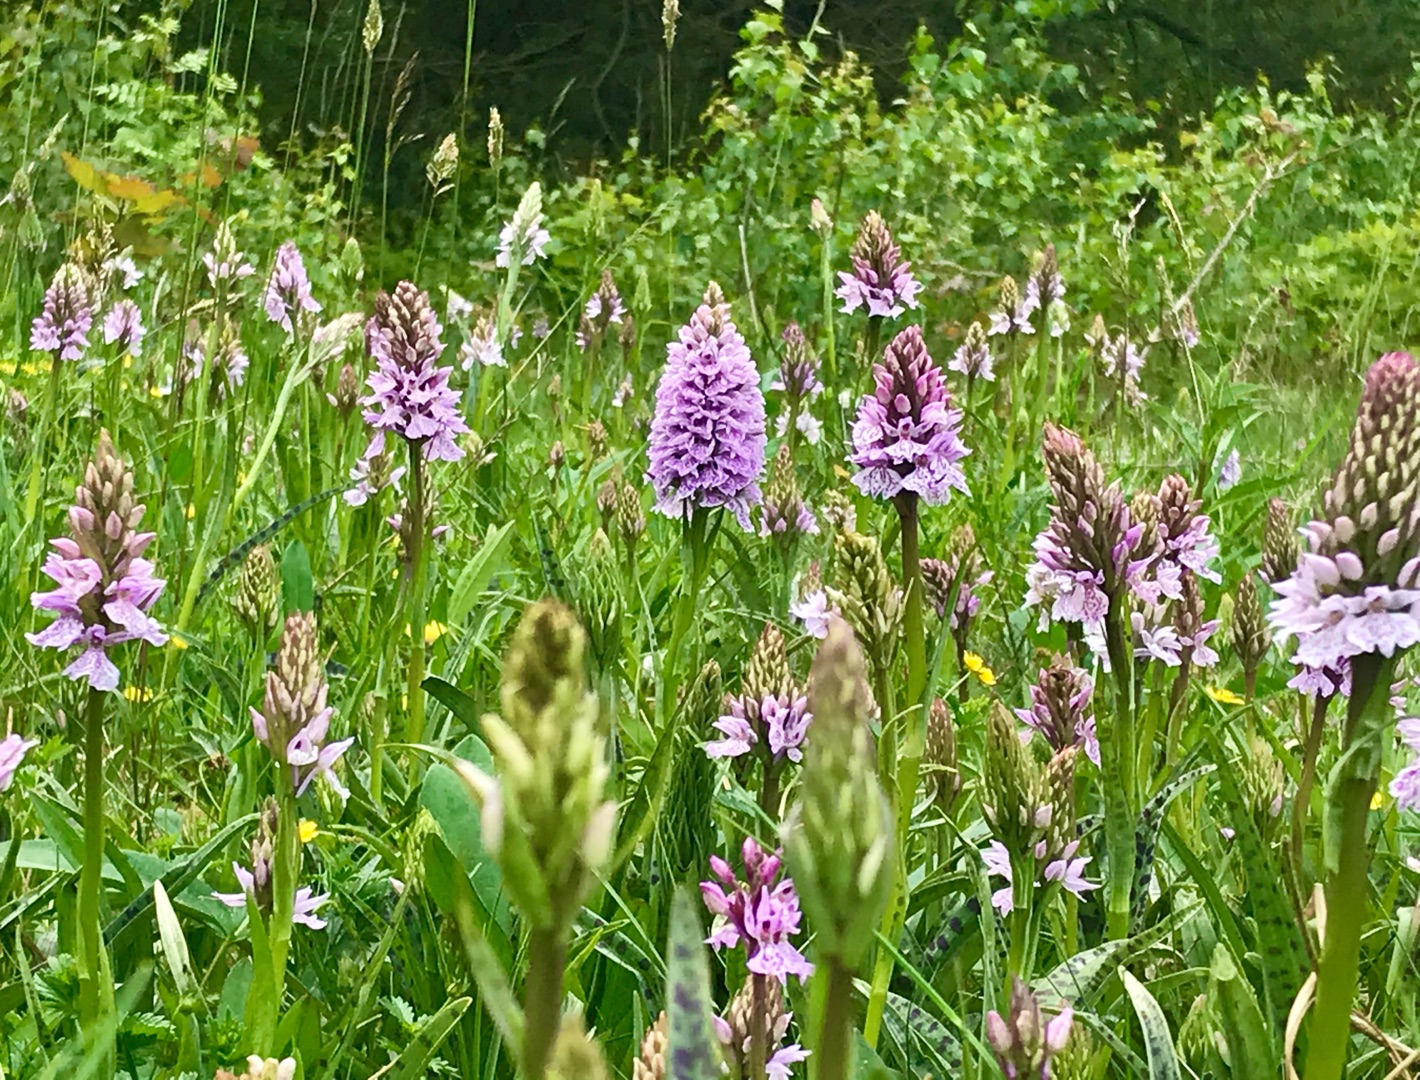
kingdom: Plantae
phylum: Tracheophyta
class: Liliopsida
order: Asparagales
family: Orchidaceae
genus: Dactylorhiza
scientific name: Dactylorhiza maculata
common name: Plettet gøgeurt
